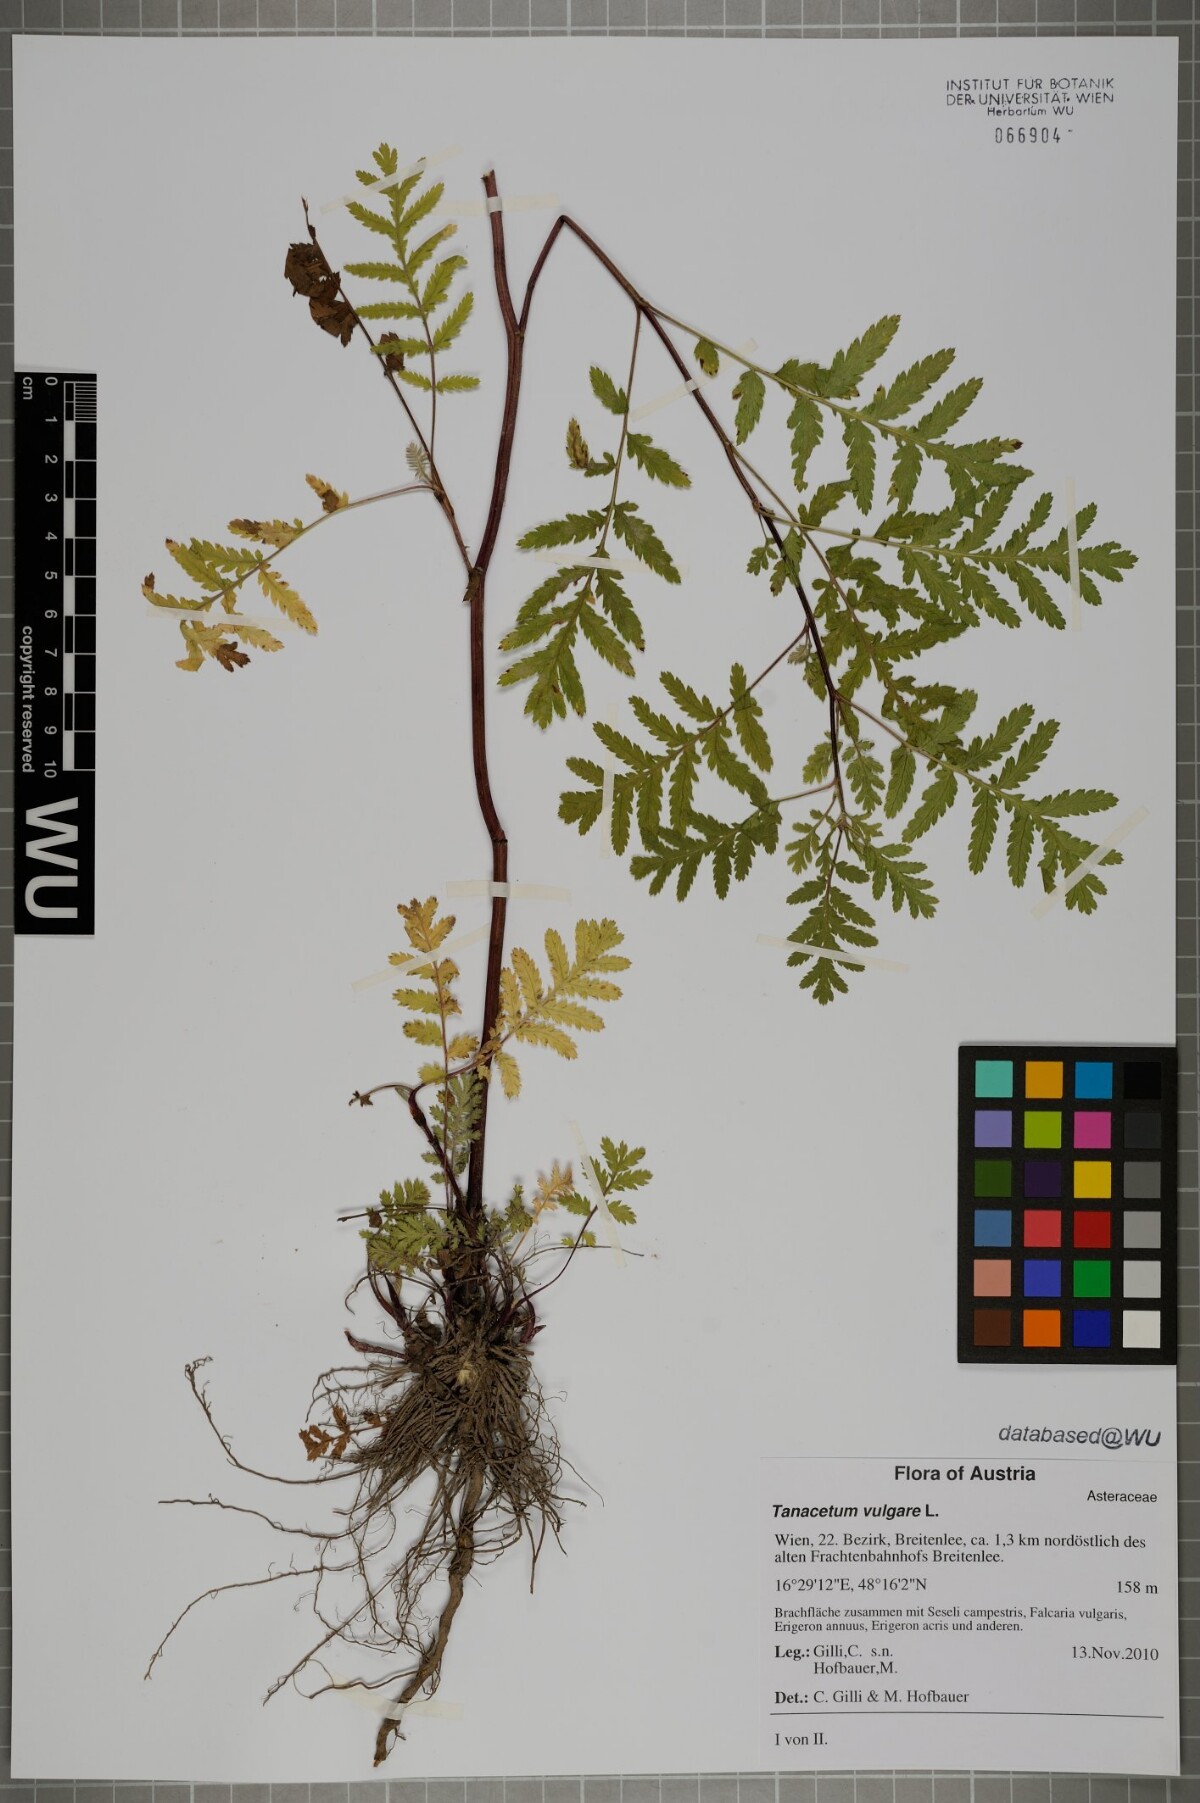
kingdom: Plantae
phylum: Tracheophyta
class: Magnoliopsida
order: Asterales
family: Asteraceae
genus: Tanacetum
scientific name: Tanacetum vulgare
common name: Common tansy
